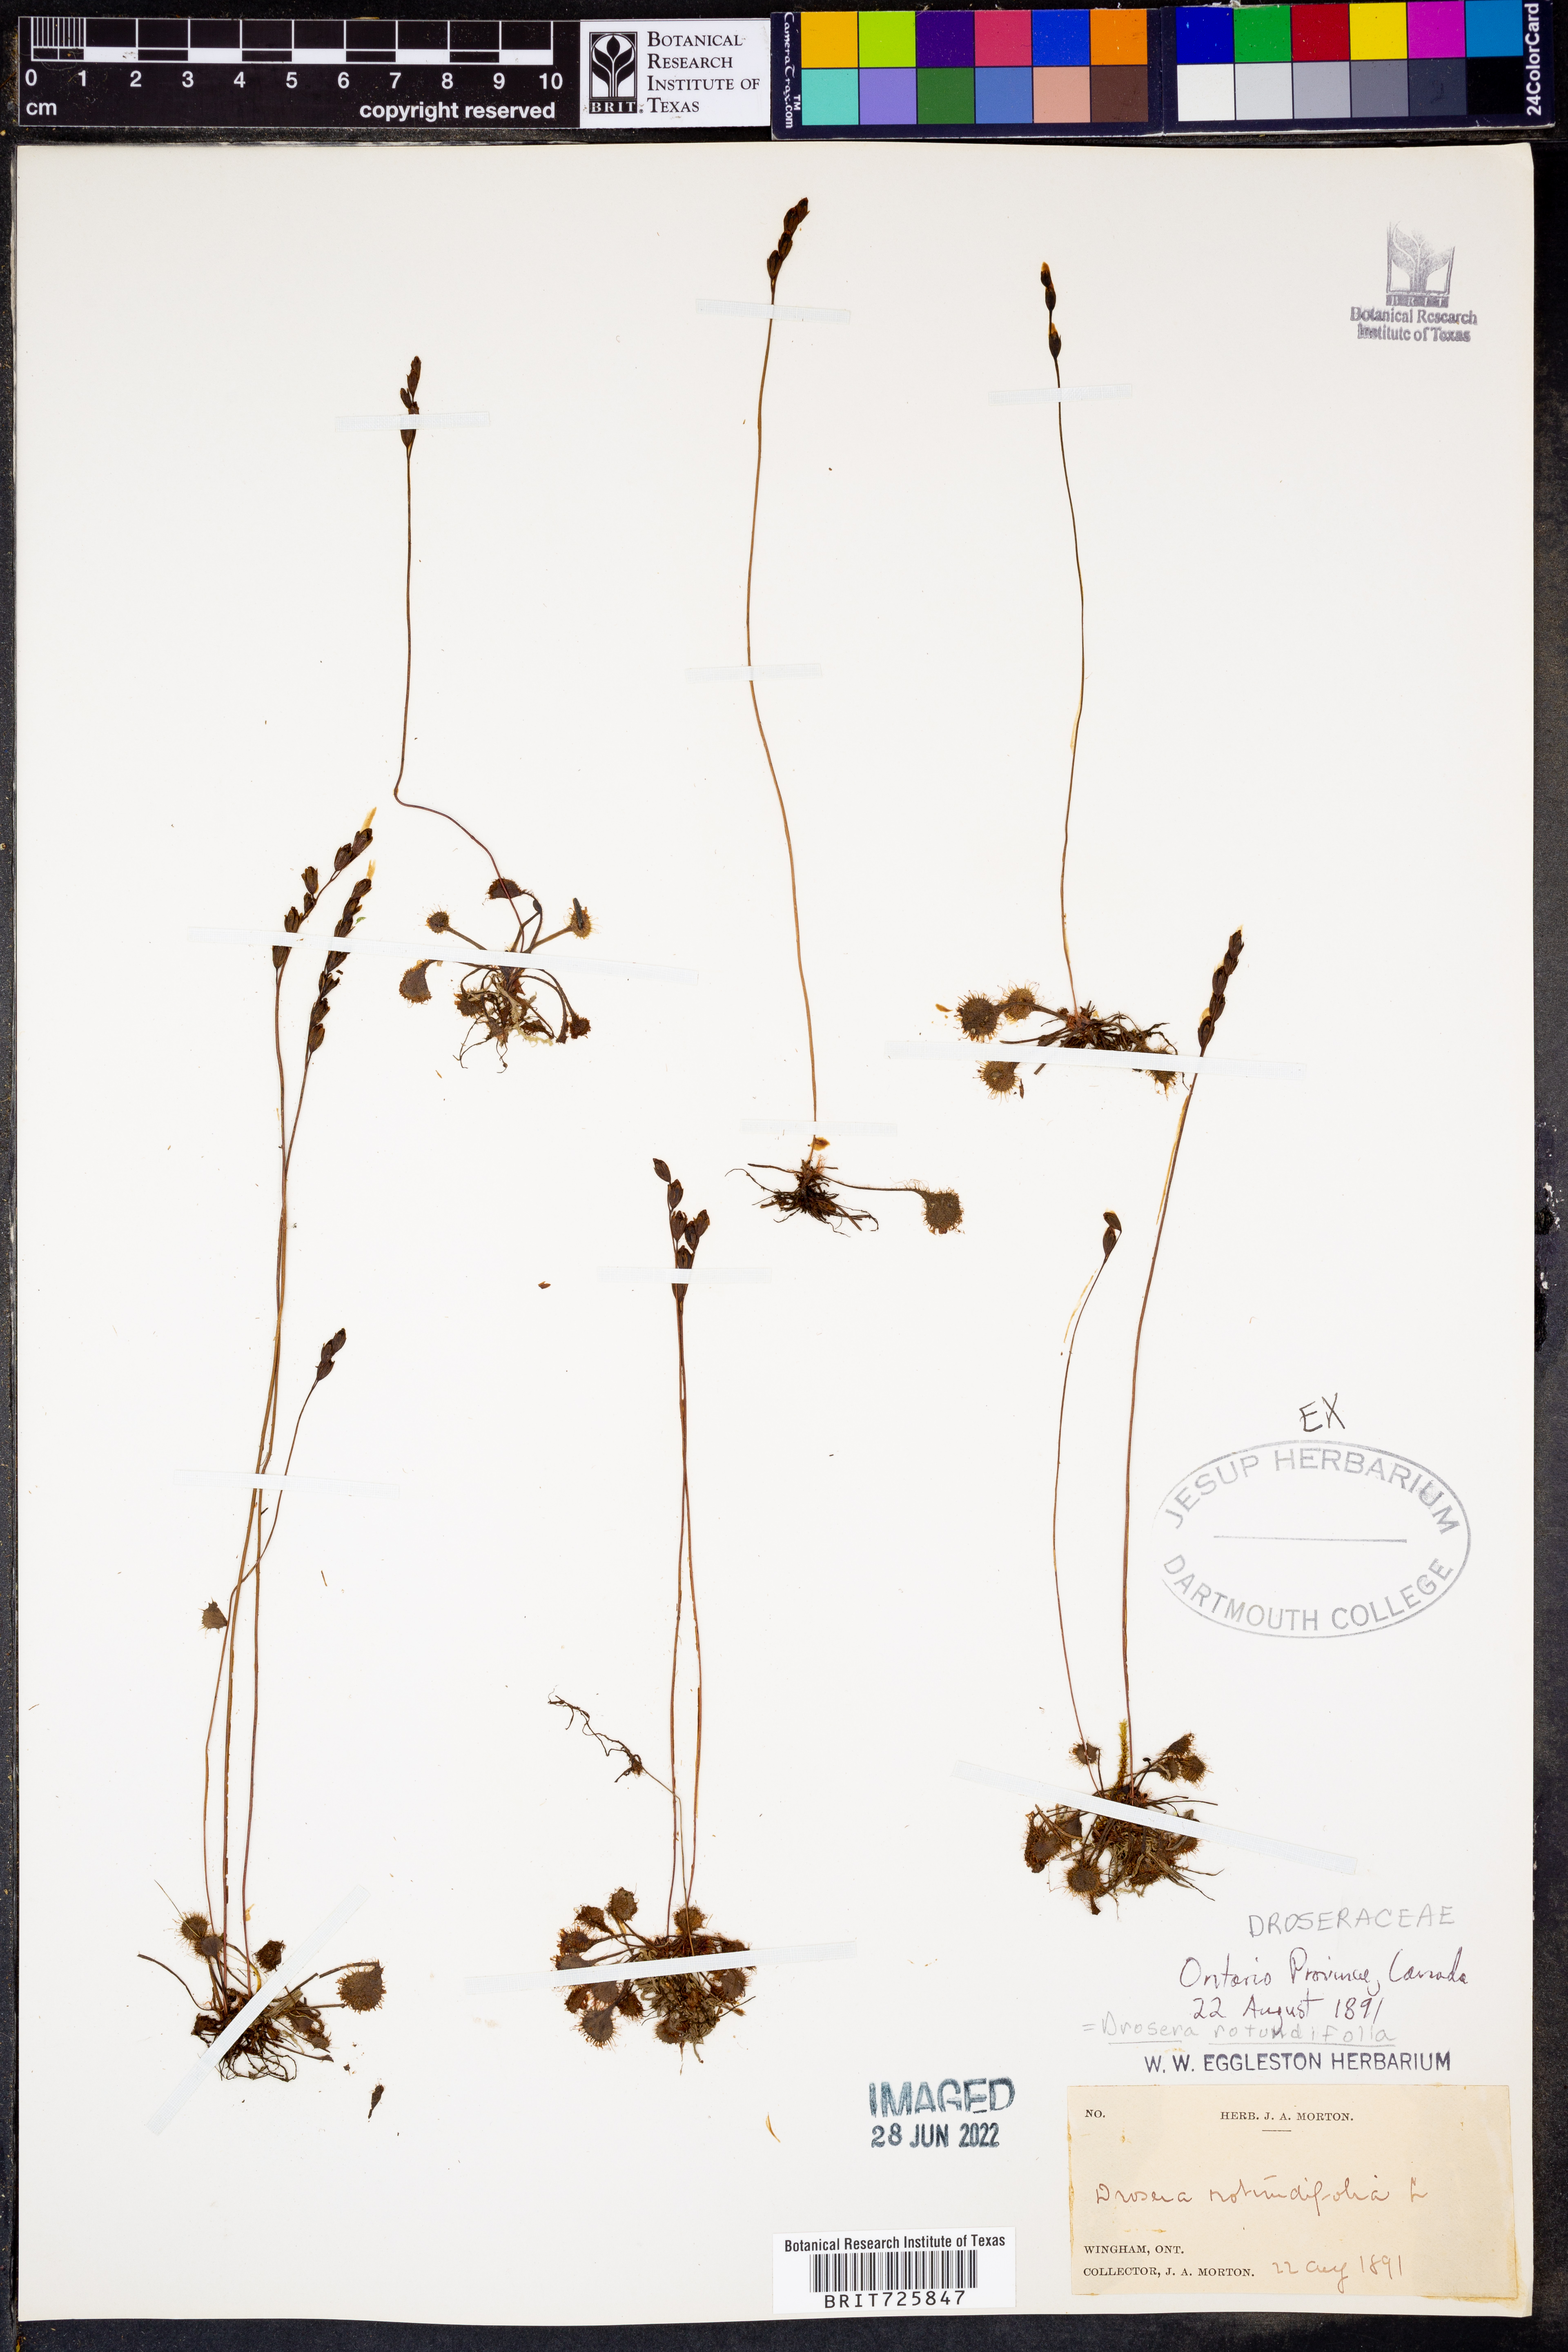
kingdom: Plantae
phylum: Tracheophyta
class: Magnoliopsida
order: Caryophyllales
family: Droseraceae
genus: Drosera
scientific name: Drosera rotundifolia
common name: Round-leaved sundew
